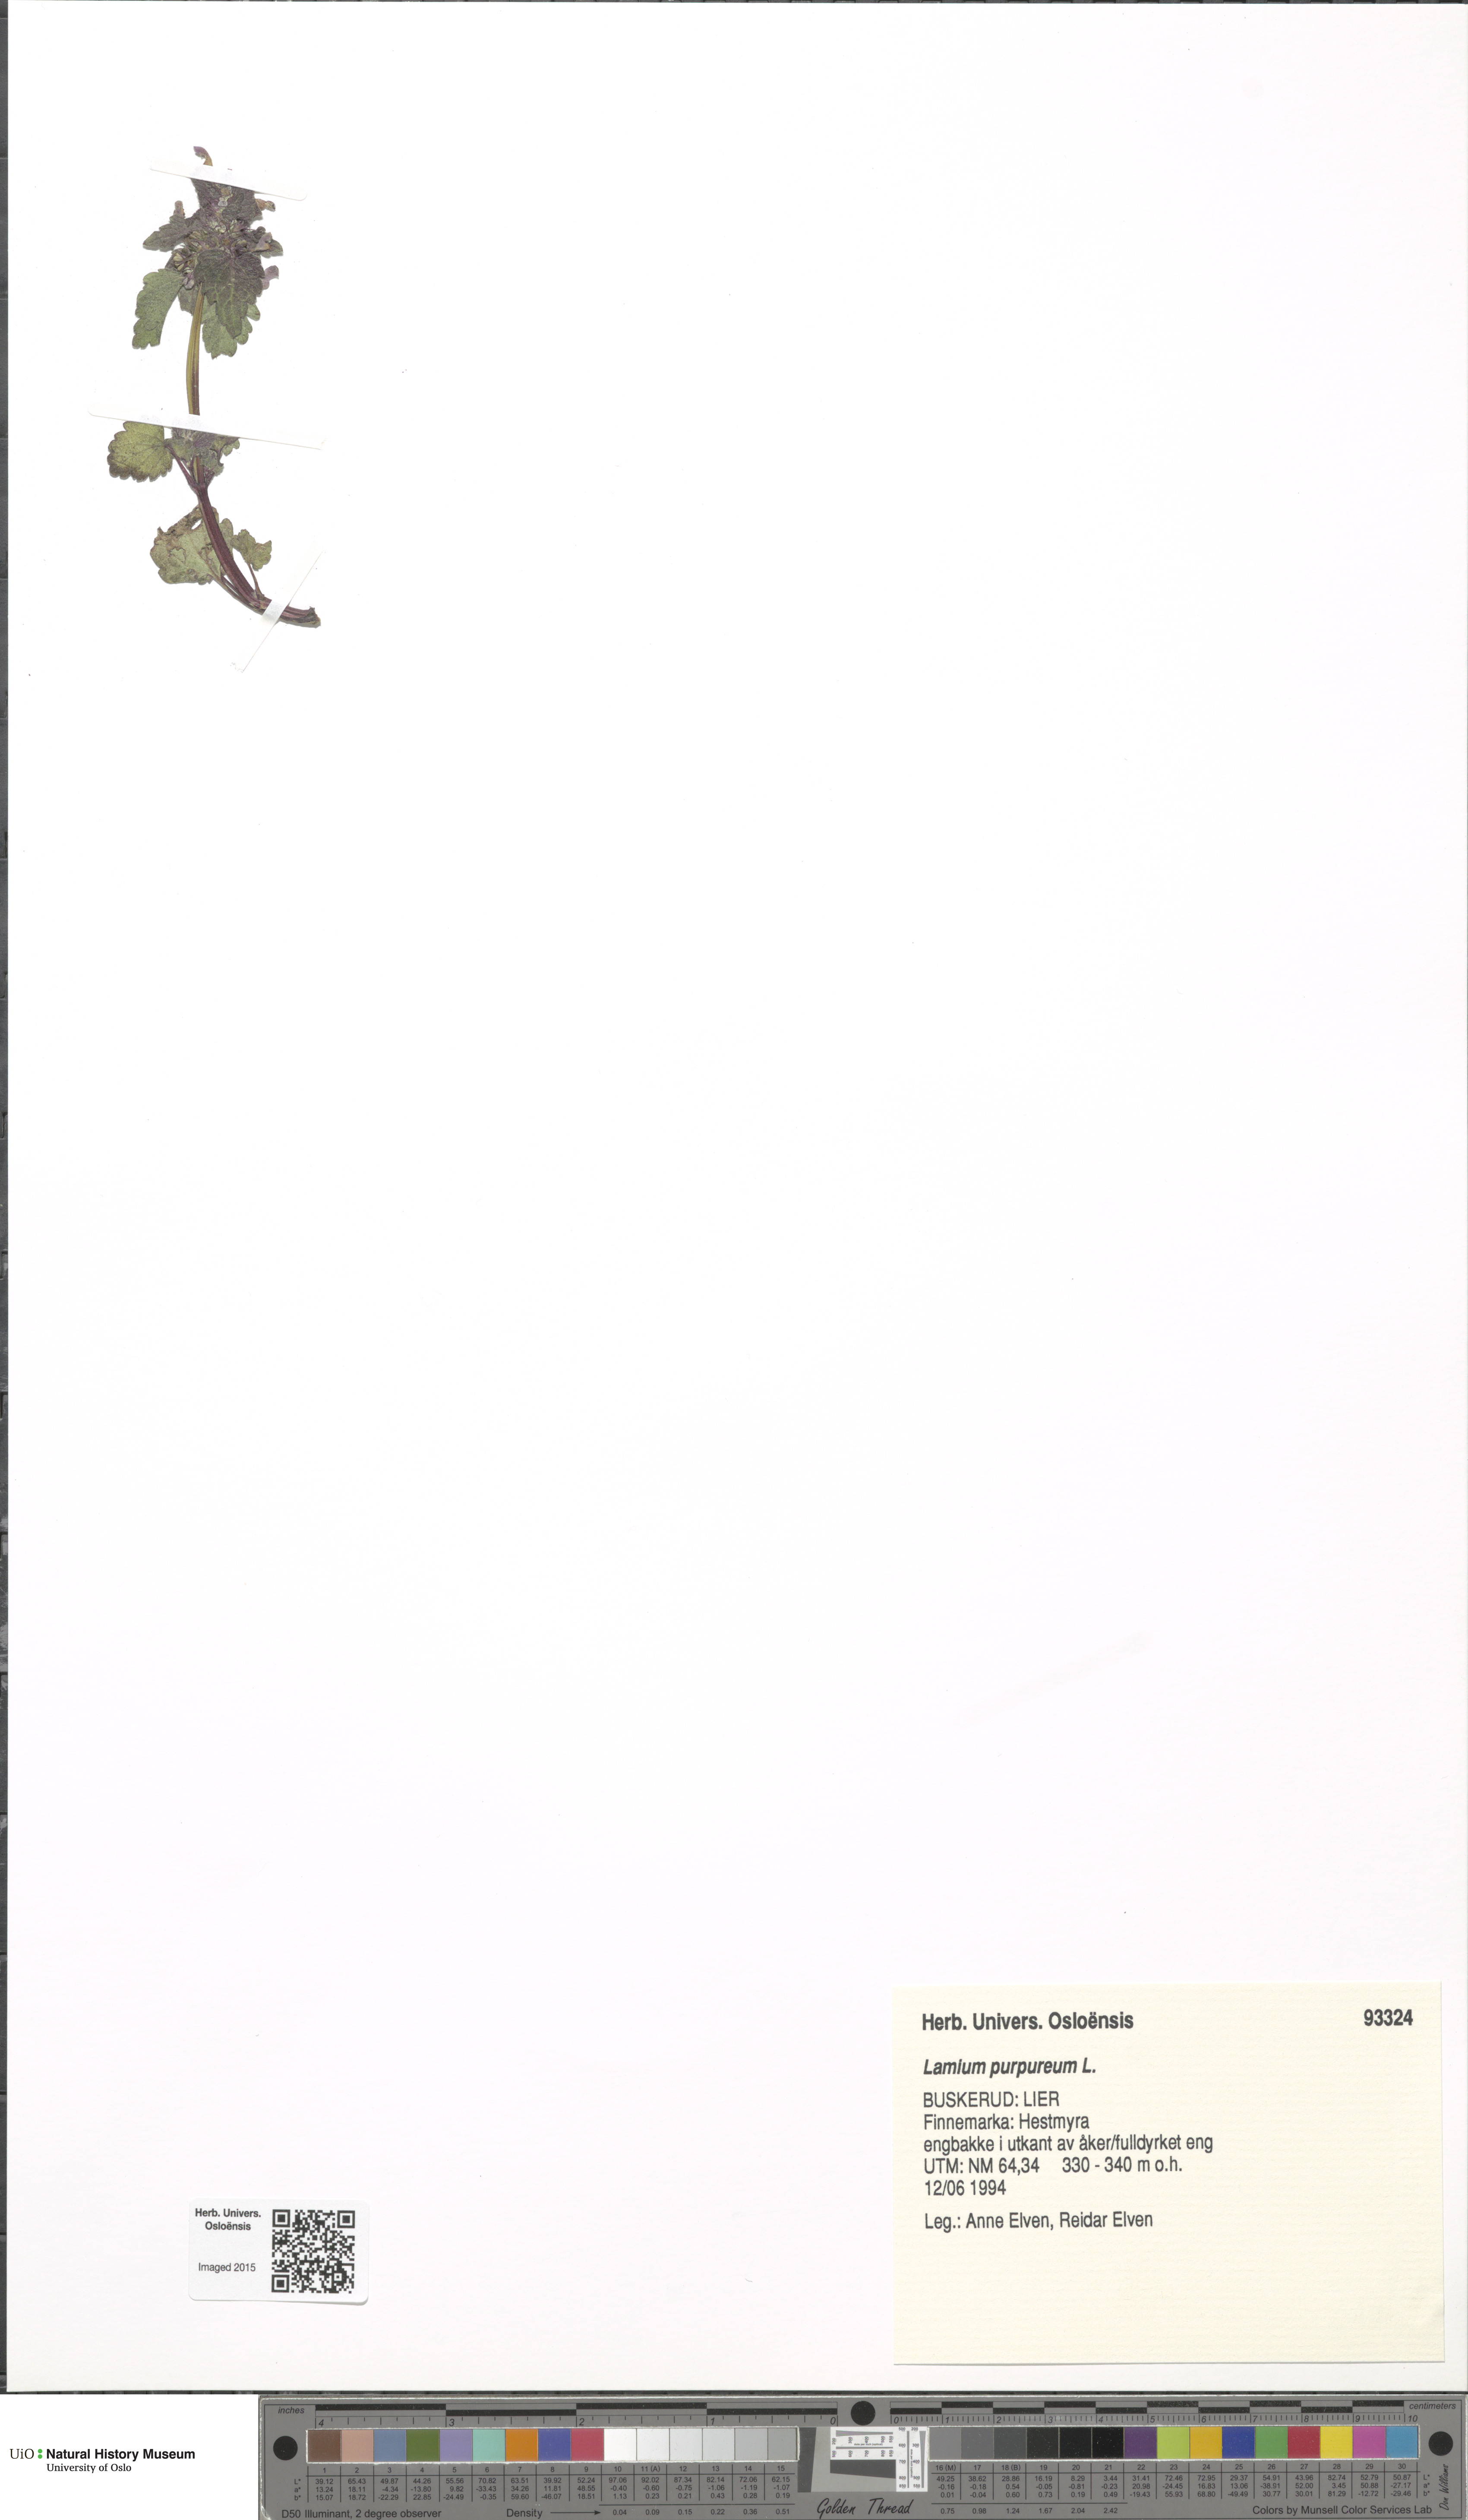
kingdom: Plantae
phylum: Tracheophyta
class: Magnoliopsida
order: Lamiales
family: Lamiaceae
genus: Lamium
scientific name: Lamium purpureum
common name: Red dead-nettle
